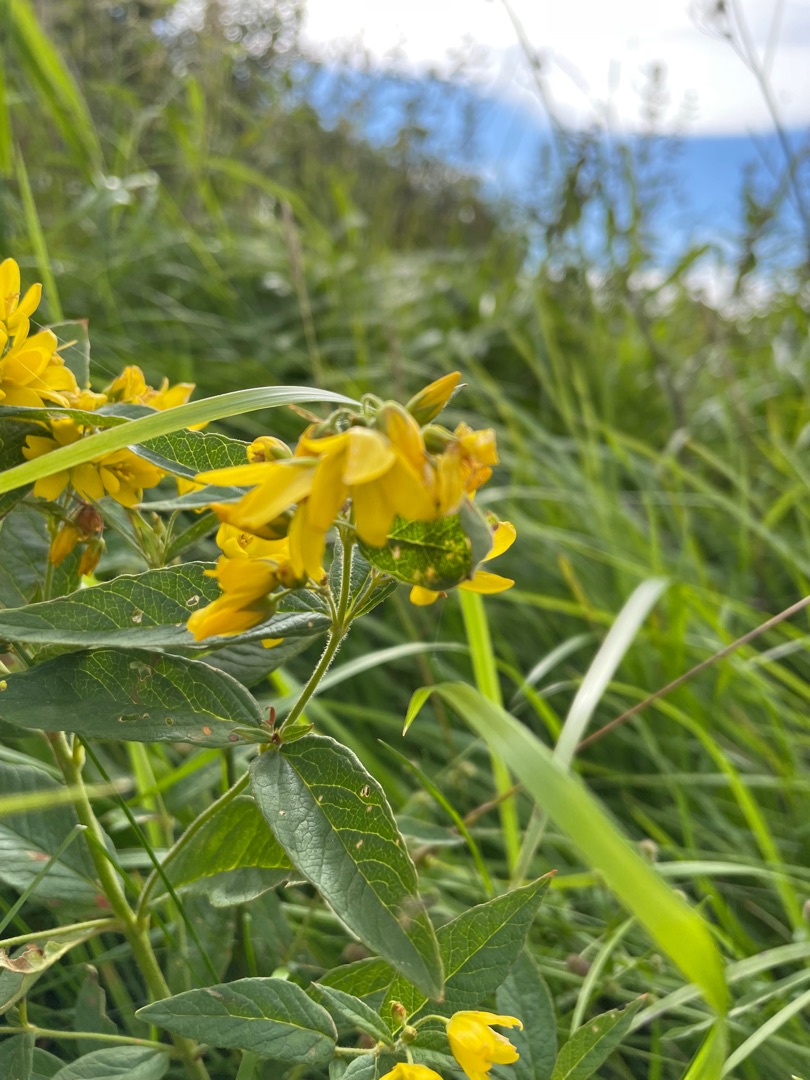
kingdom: Plantae
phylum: Tracheophyta
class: Magnoliopsida
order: Ericales
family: Primulaceae
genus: Lysimachia
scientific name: Lysimachia vulgaris
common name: Almindelig fredløs
